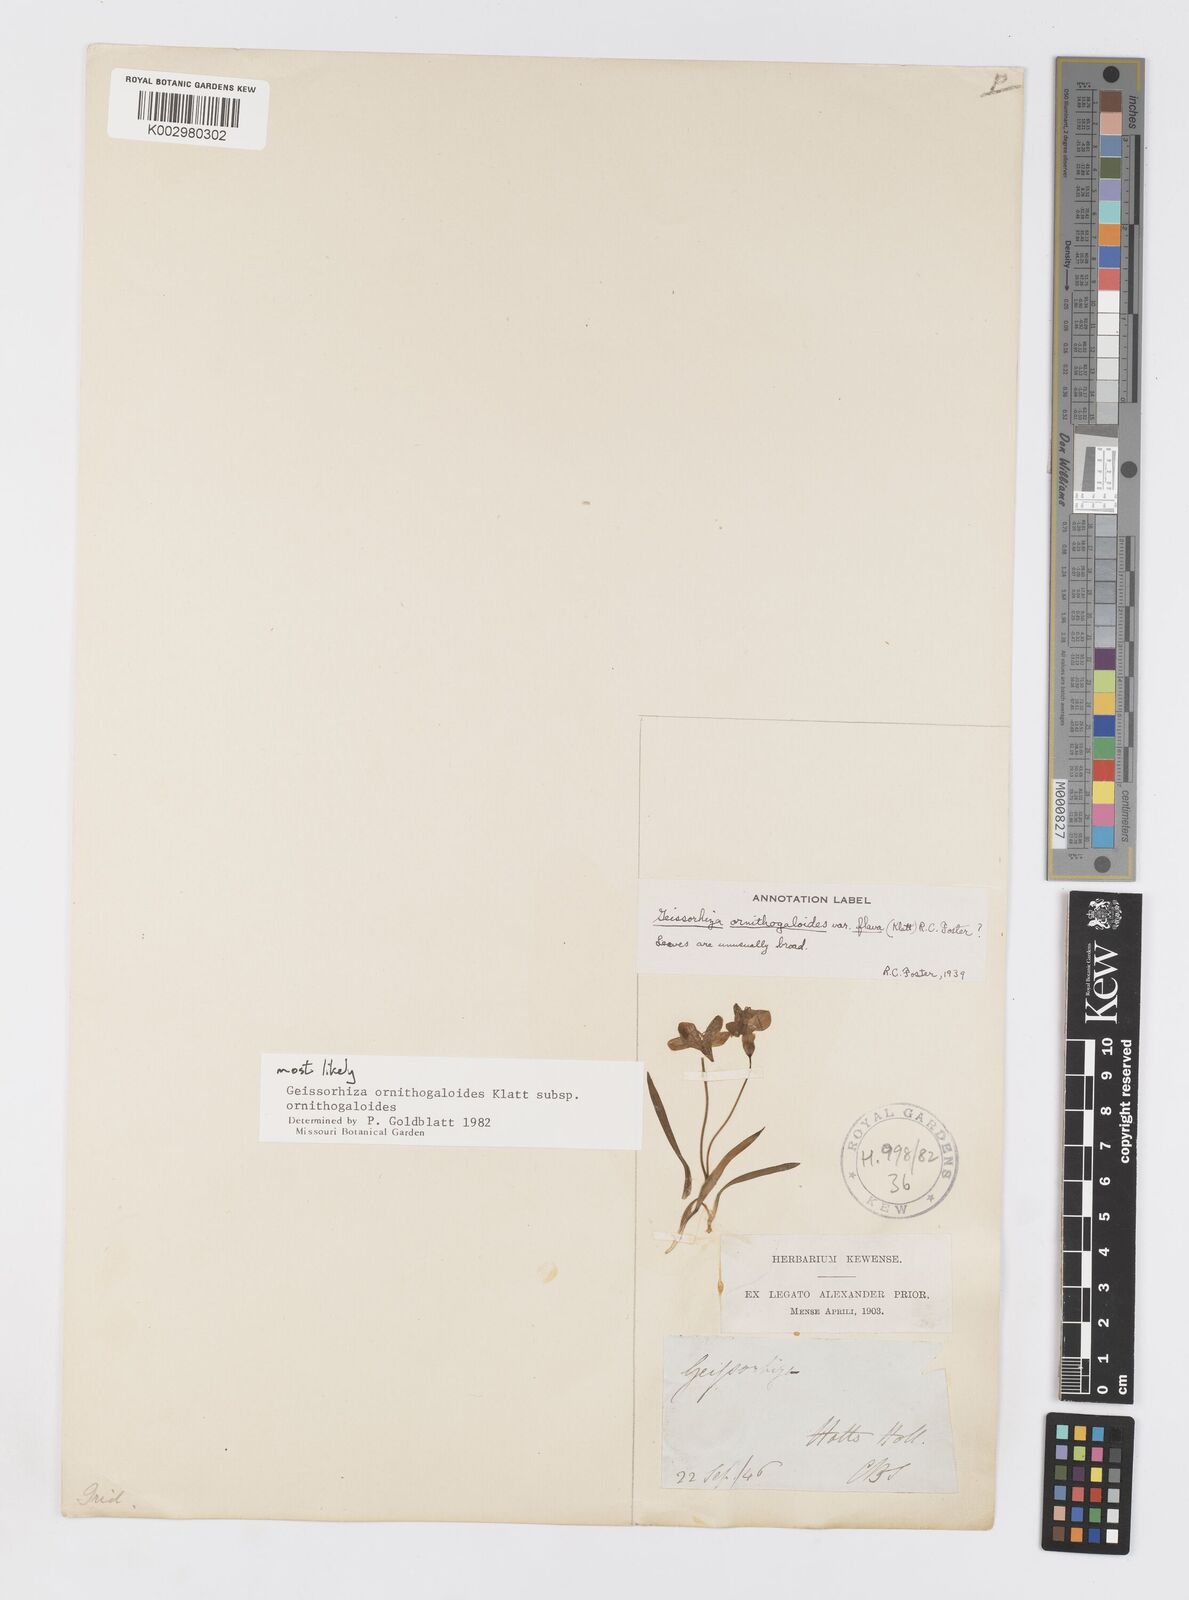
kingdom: Plantae
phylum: Tracheophyta
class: Liliopsida
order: Asparagales
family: Iridaceae
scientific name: Iridaceae
